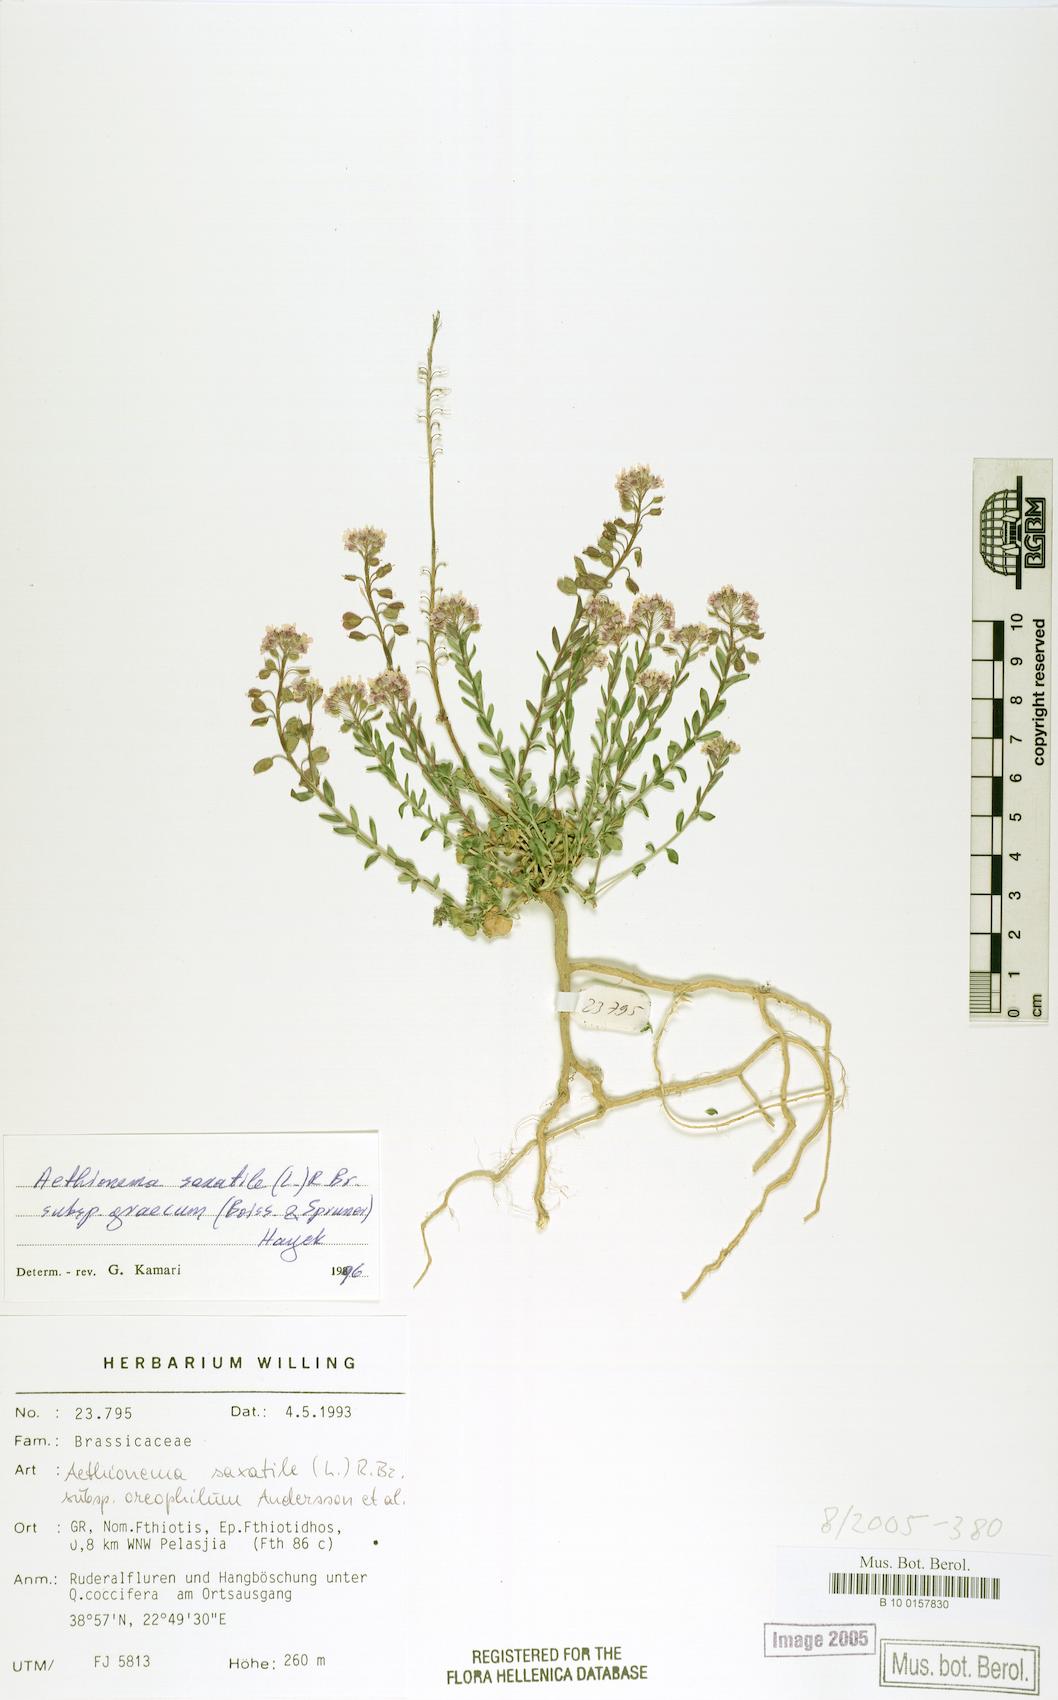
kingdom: Plantae
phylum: Tracheophyta
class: Magnoliopsida
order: Brassicales
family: Brassicaceae
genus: Aethionema
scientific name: Aethionema saxatile
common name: Burnt candytuft
